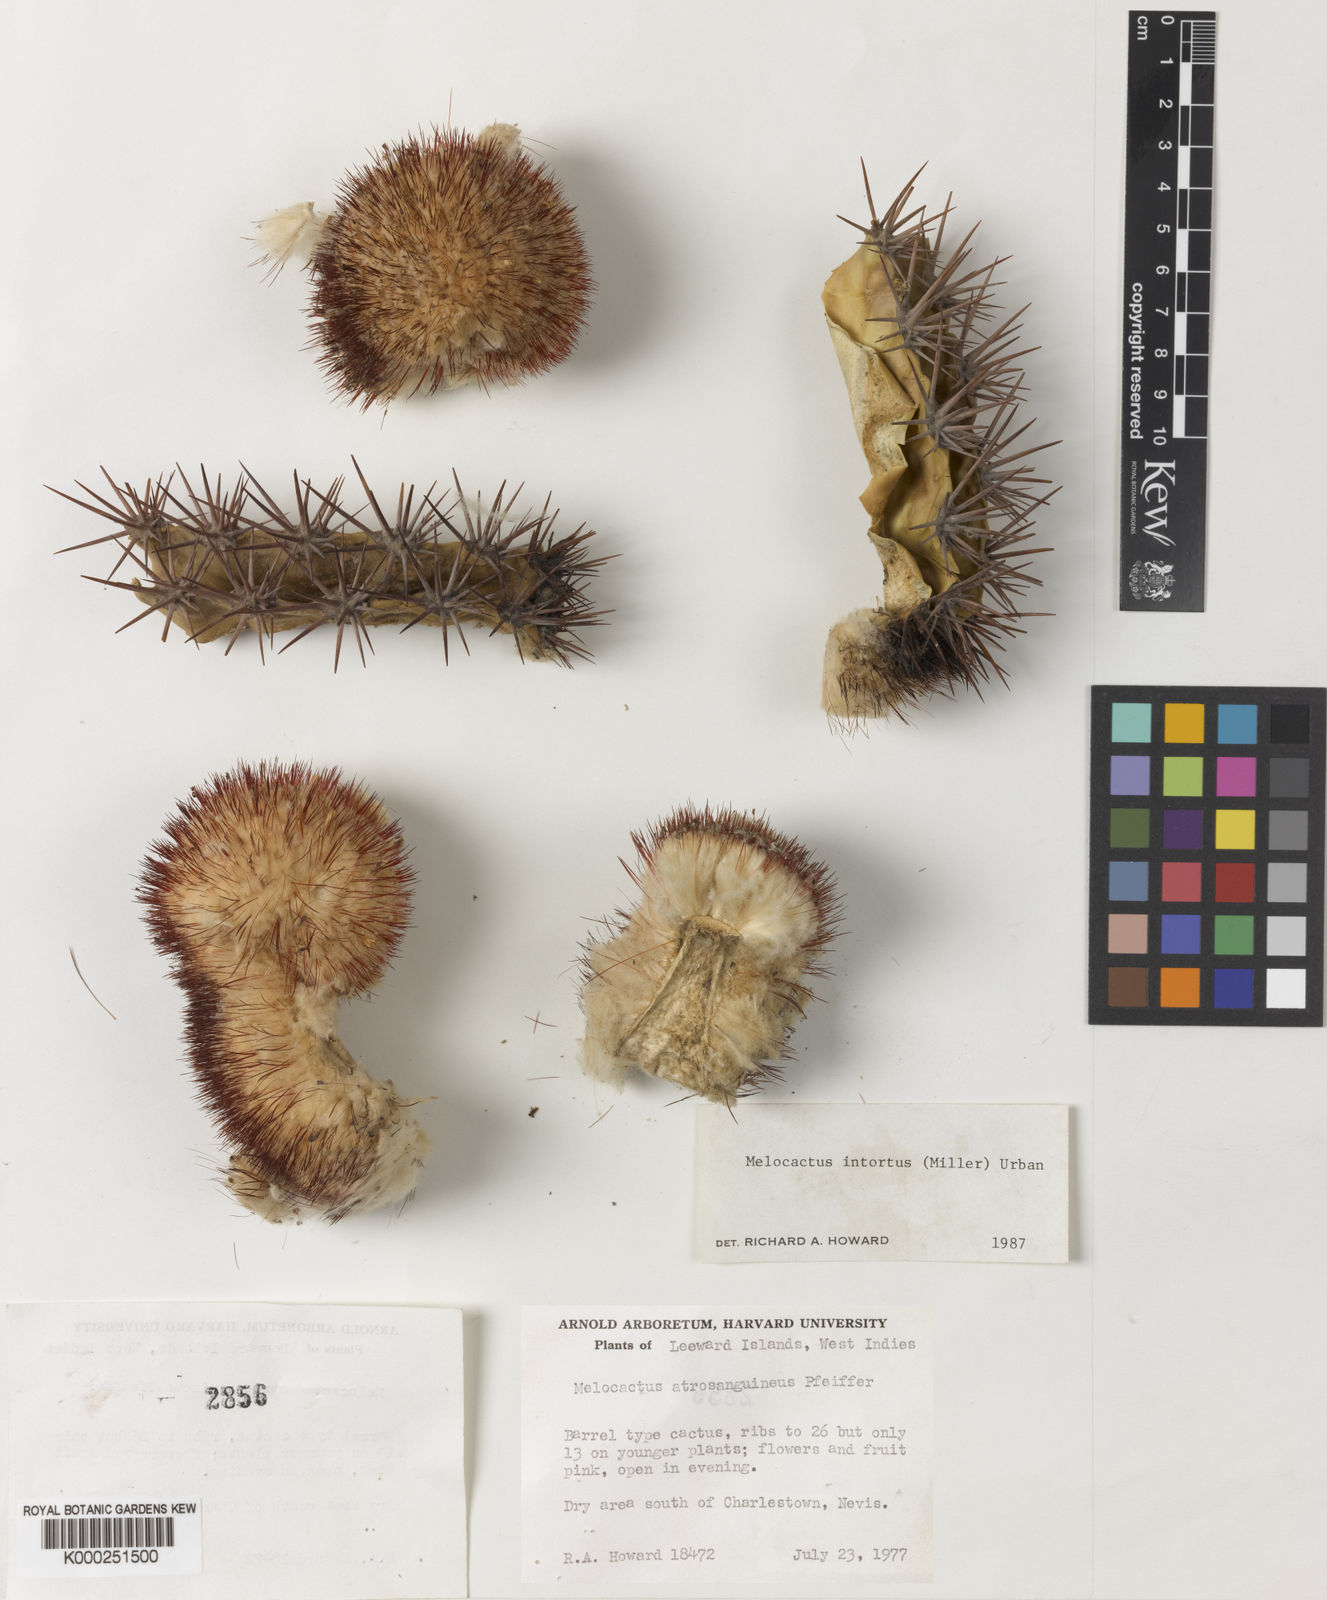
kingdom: Plantae
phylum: Tracheophyta
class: Magnoliopsida
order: Caryophyllales
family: Cactaceae
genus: Melocactus
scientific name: Melocactus
